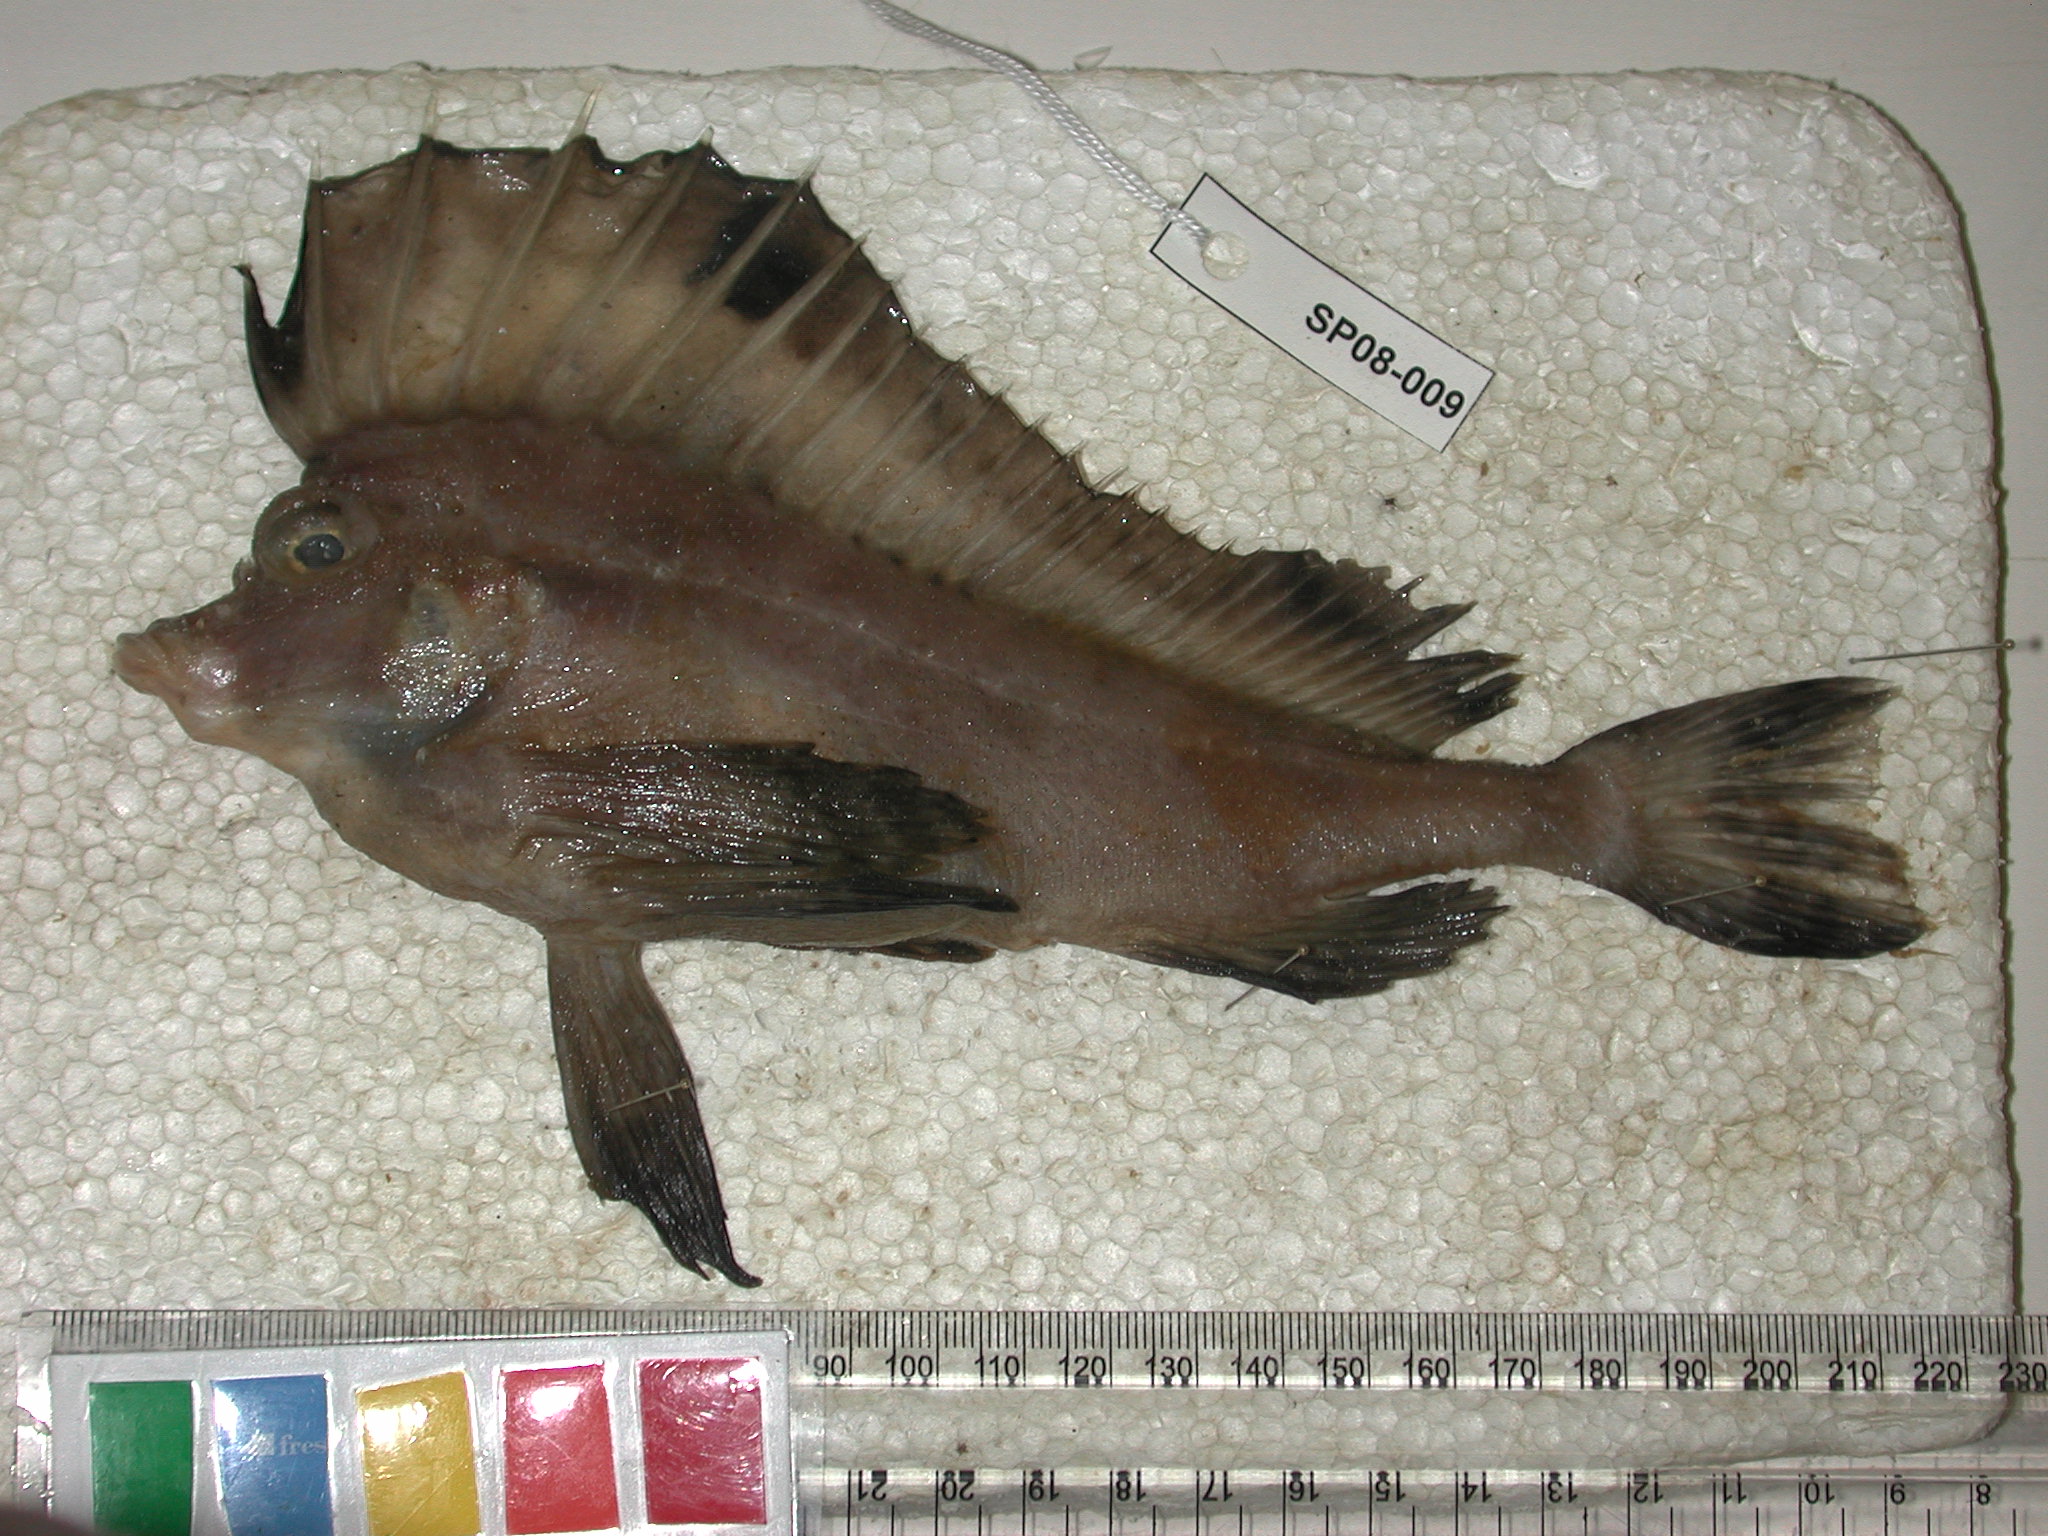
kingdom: Animalia
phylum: Chordata
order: Scorpaeniformes
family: Congiopodidae
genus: Congiopodus
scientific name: Congiopodus spinifer
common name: Spinenose horsefish
